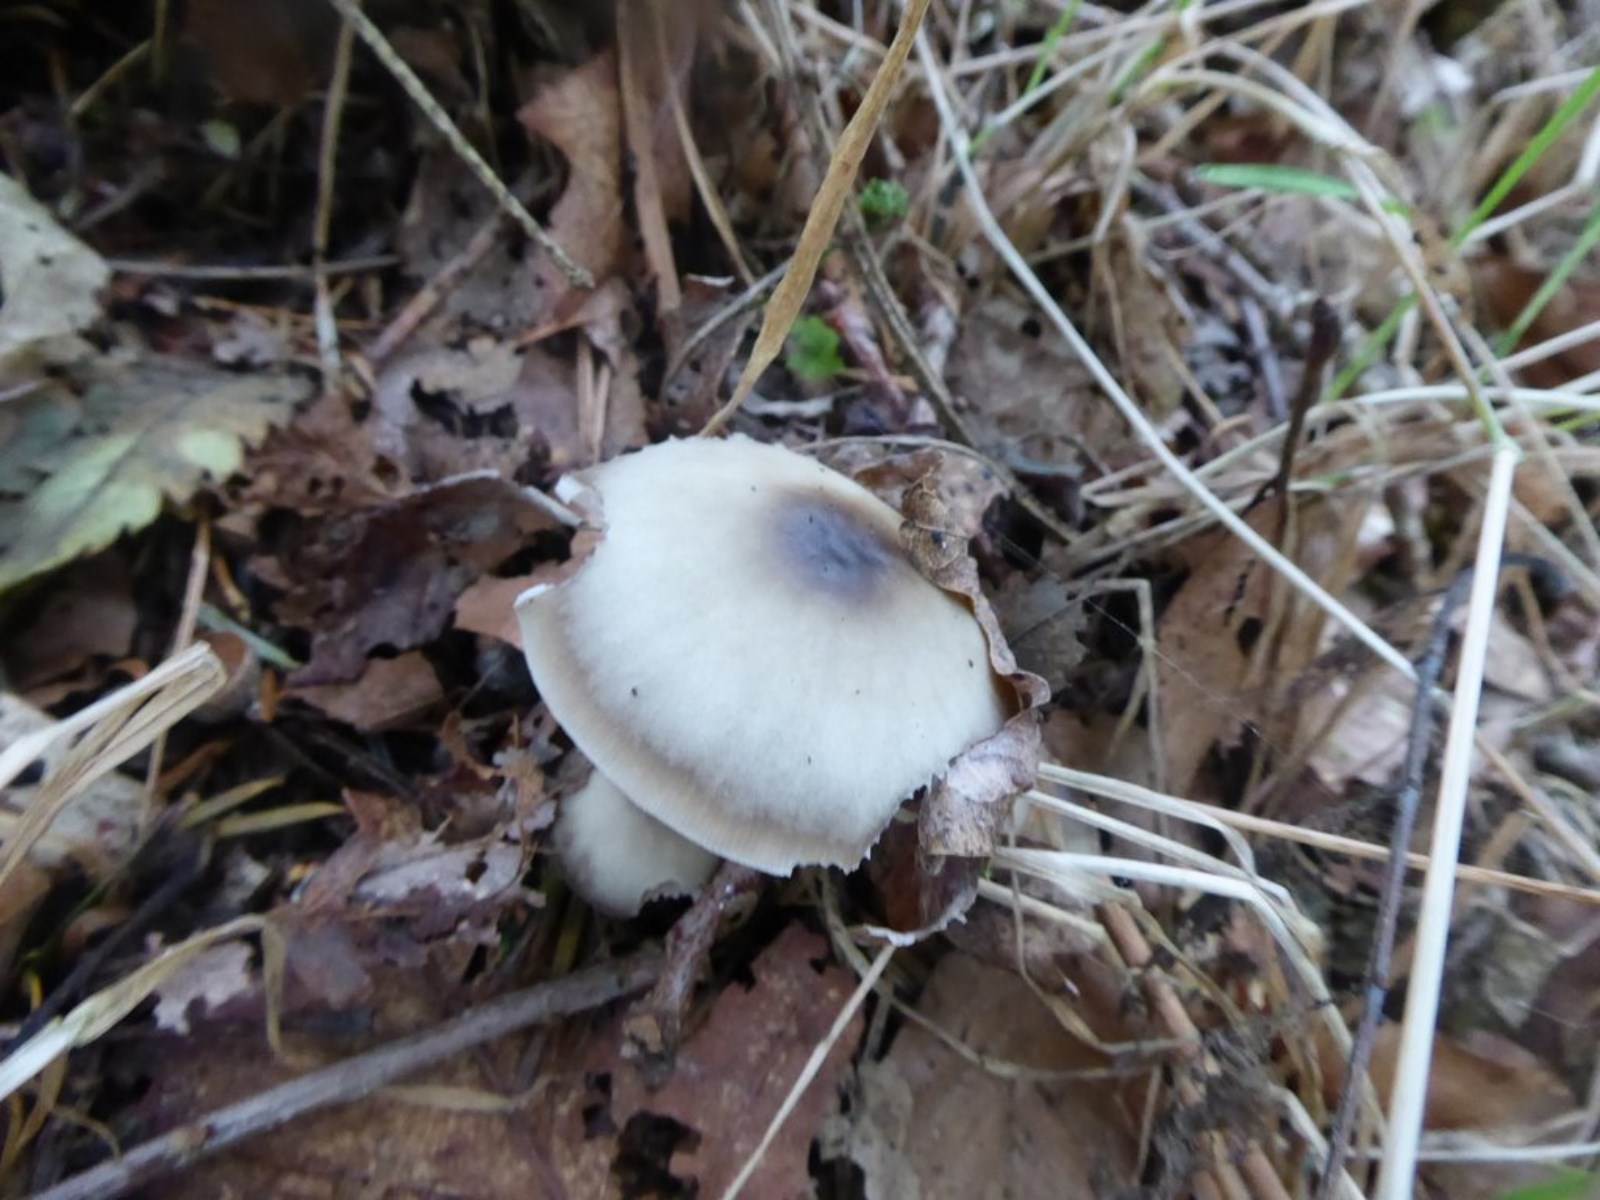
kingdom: Fungi
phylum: Basidiomycota
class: Agaricomycetes
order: Agaricales
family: Omphalotaceae
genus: Rhodocollybia
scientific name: Rhodocollybia asema
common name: horngrå fladhat
